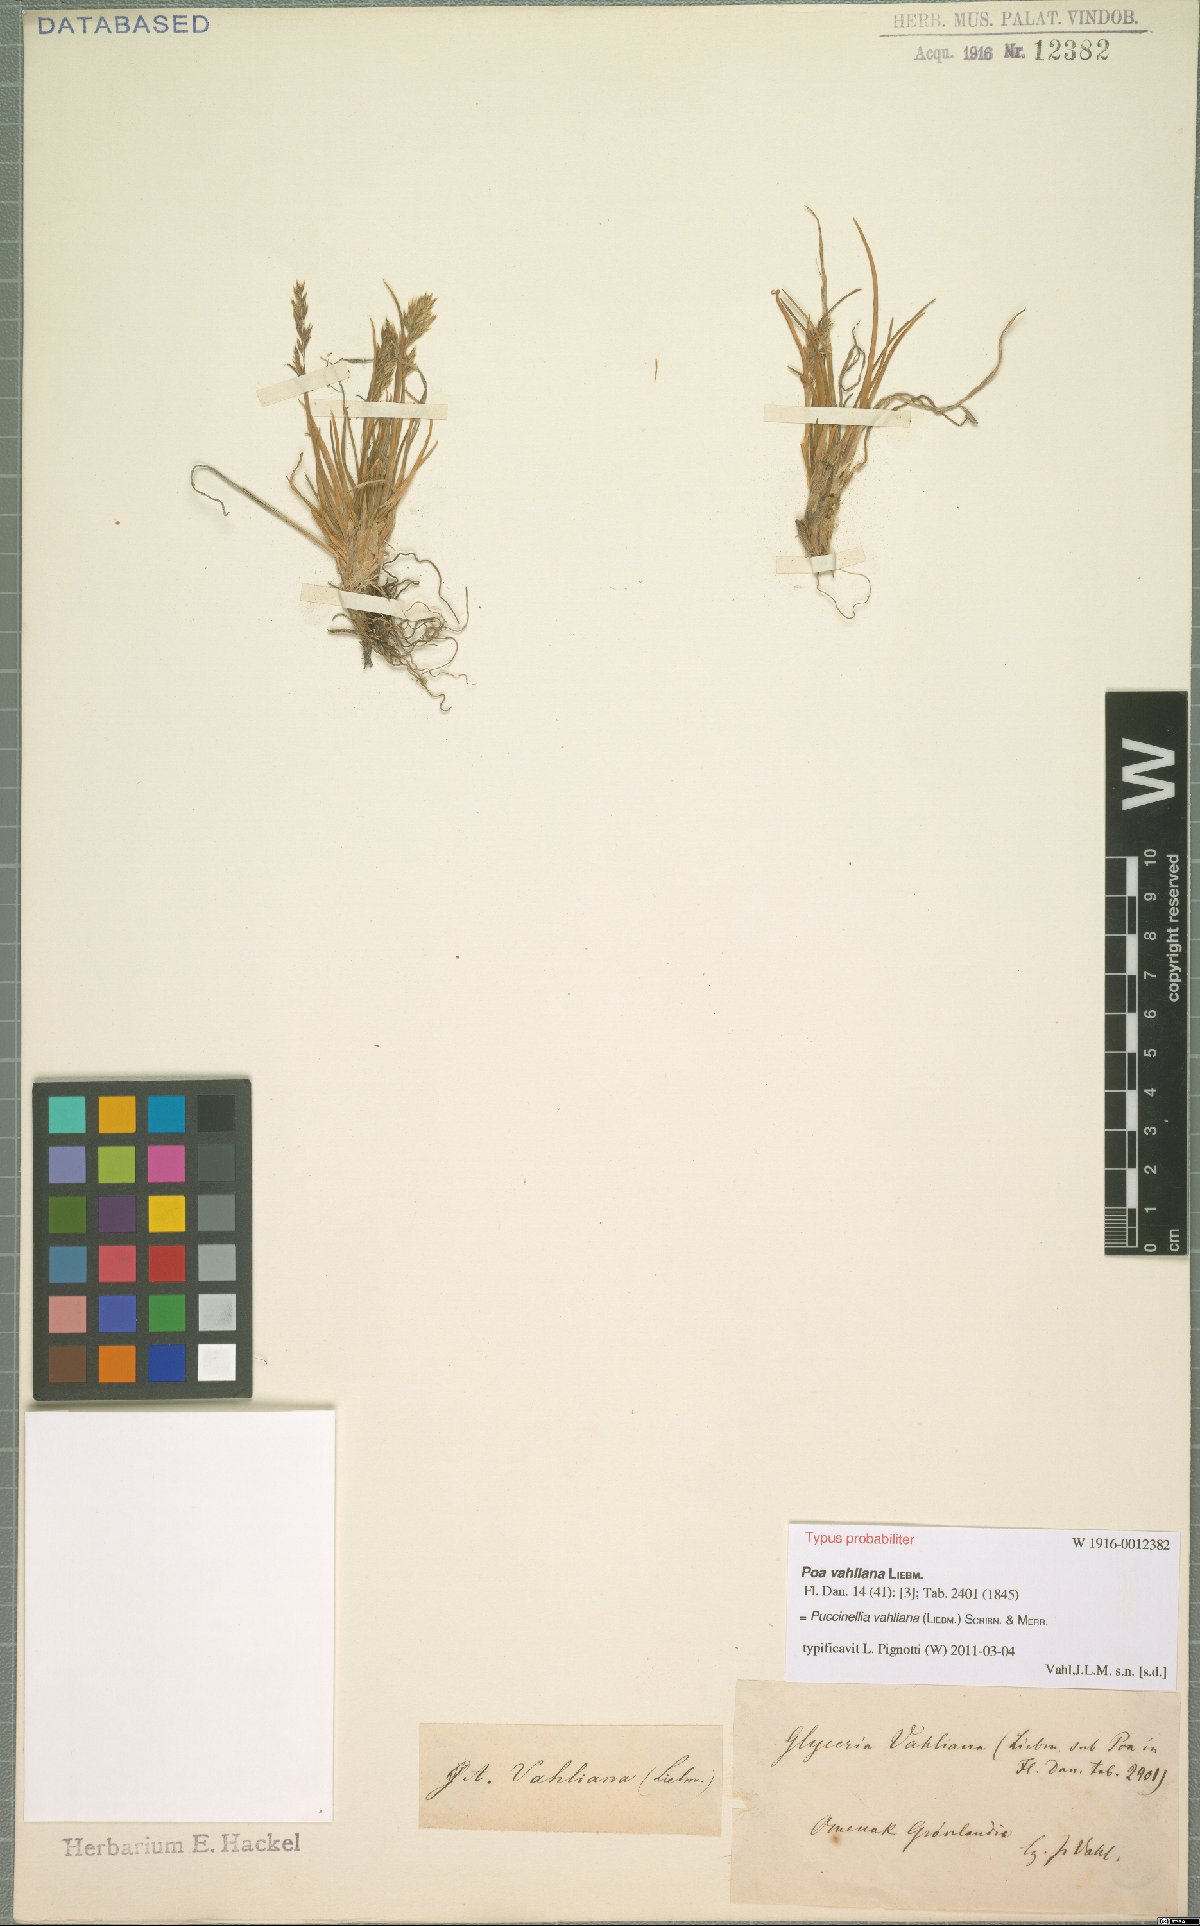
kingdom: Plantae
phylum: Tracheophyta
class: Liliopsida
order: Poales
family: Poaceae
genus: Puccinellia
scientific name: Puccinellia vahliana
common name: Vahl's alkaligrass
